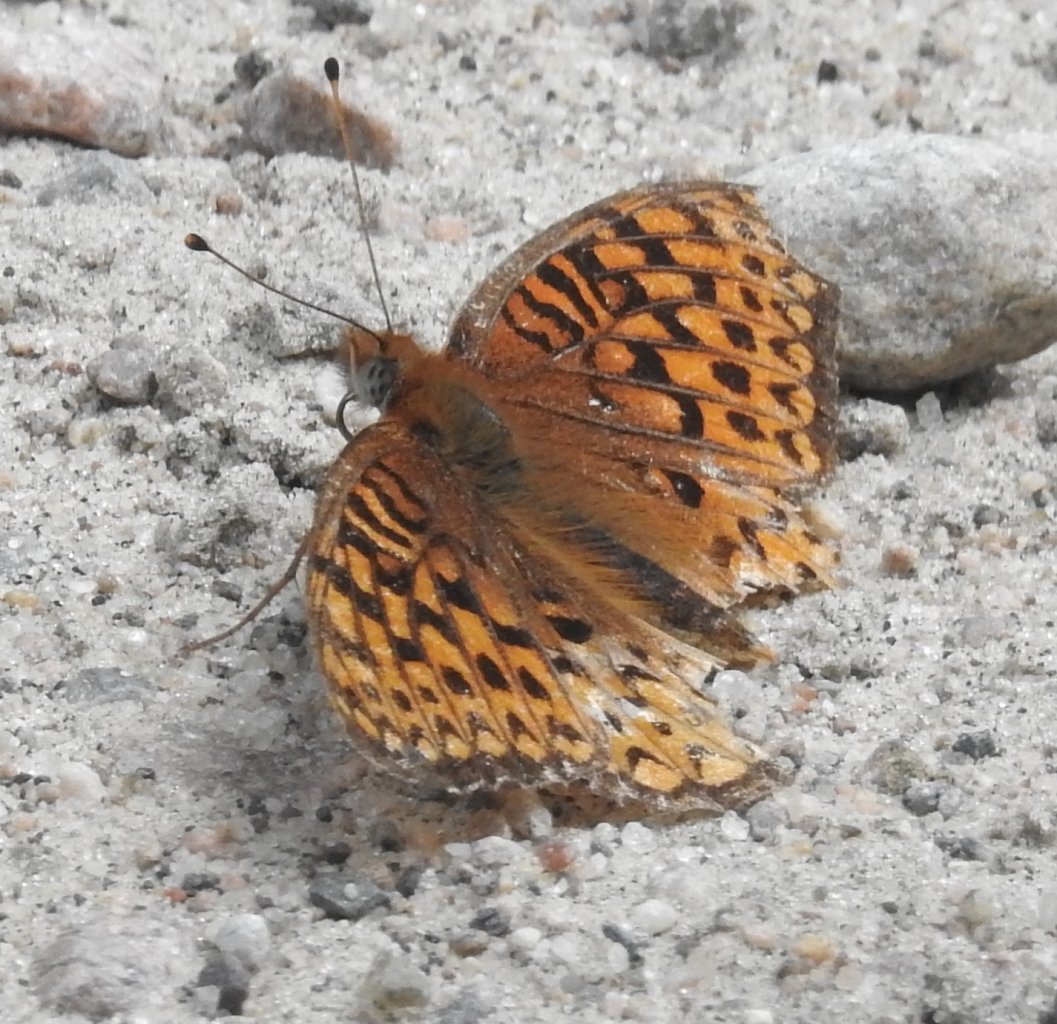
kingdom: Animalia
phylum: Arthropoda
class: Insecta
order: Lepidoptera
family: Nymphalidae
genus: Speyeria
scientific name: Speyeria atlantis
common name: Atlantis Fritillary
